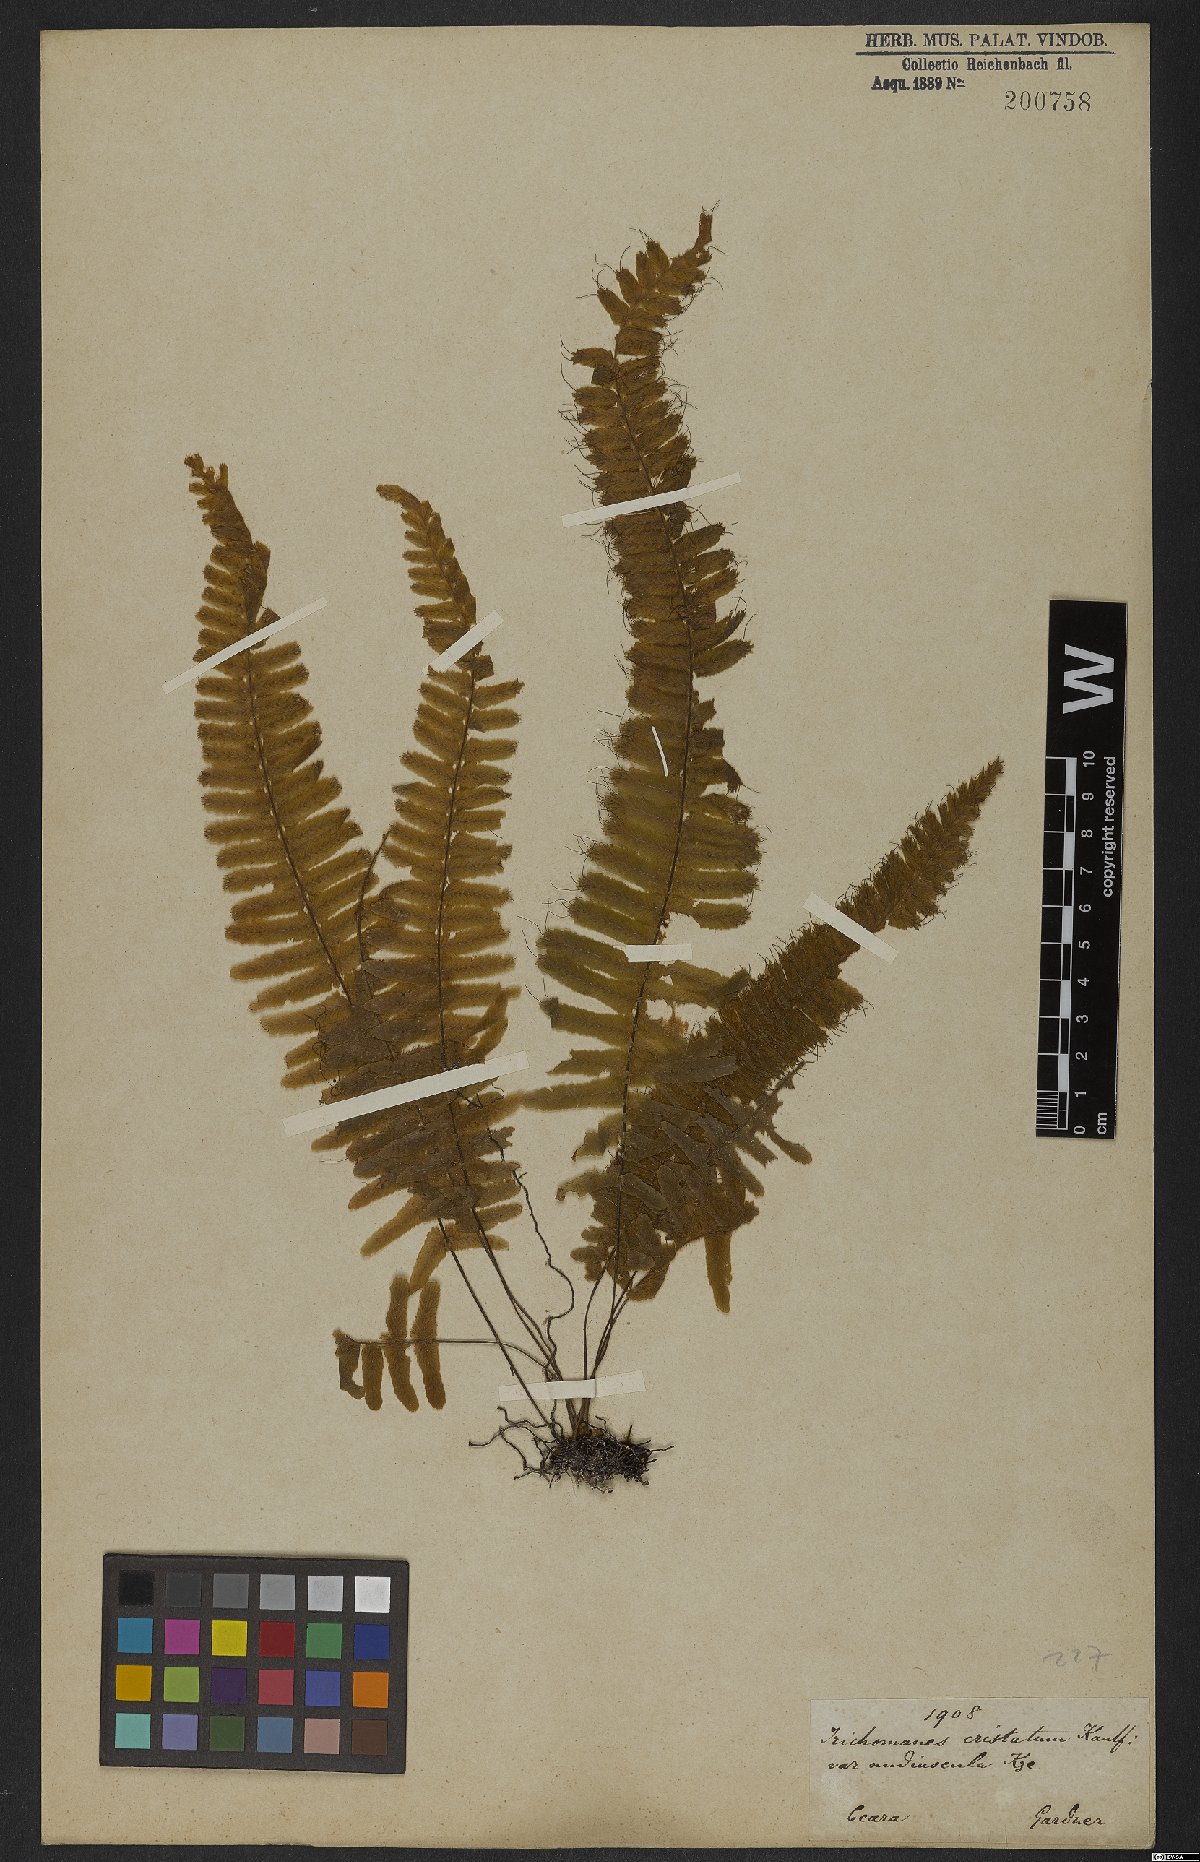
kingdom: Plantae
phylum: Tracheophyta
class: Polypodiopsida
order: Hymenophyllales
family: Hymenophyllaceae
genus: Trichomanes
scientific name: Trichomanes cristatum
